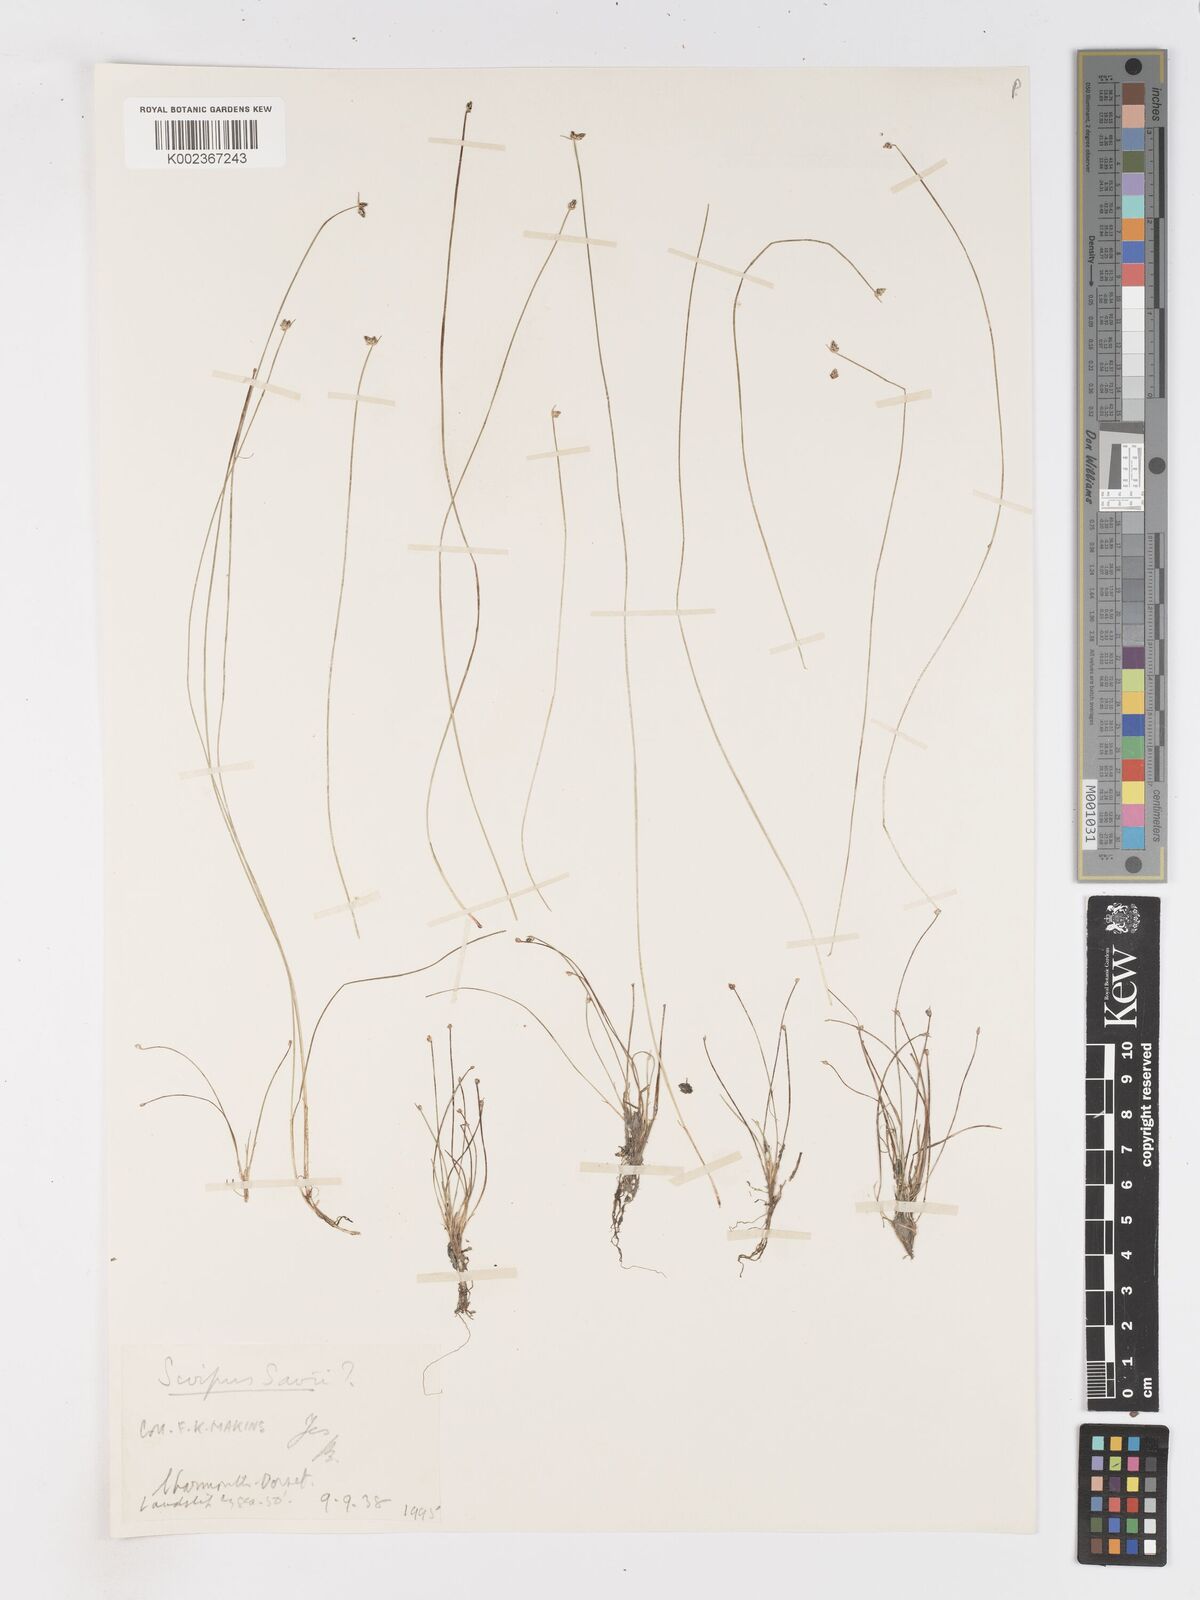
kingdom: Plantae
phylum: Tracheophyta
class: Liliopsida
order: Poales
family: Cyperaceae
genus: Isolepis
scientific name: Isolepis cernua
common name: Slender club-rush
